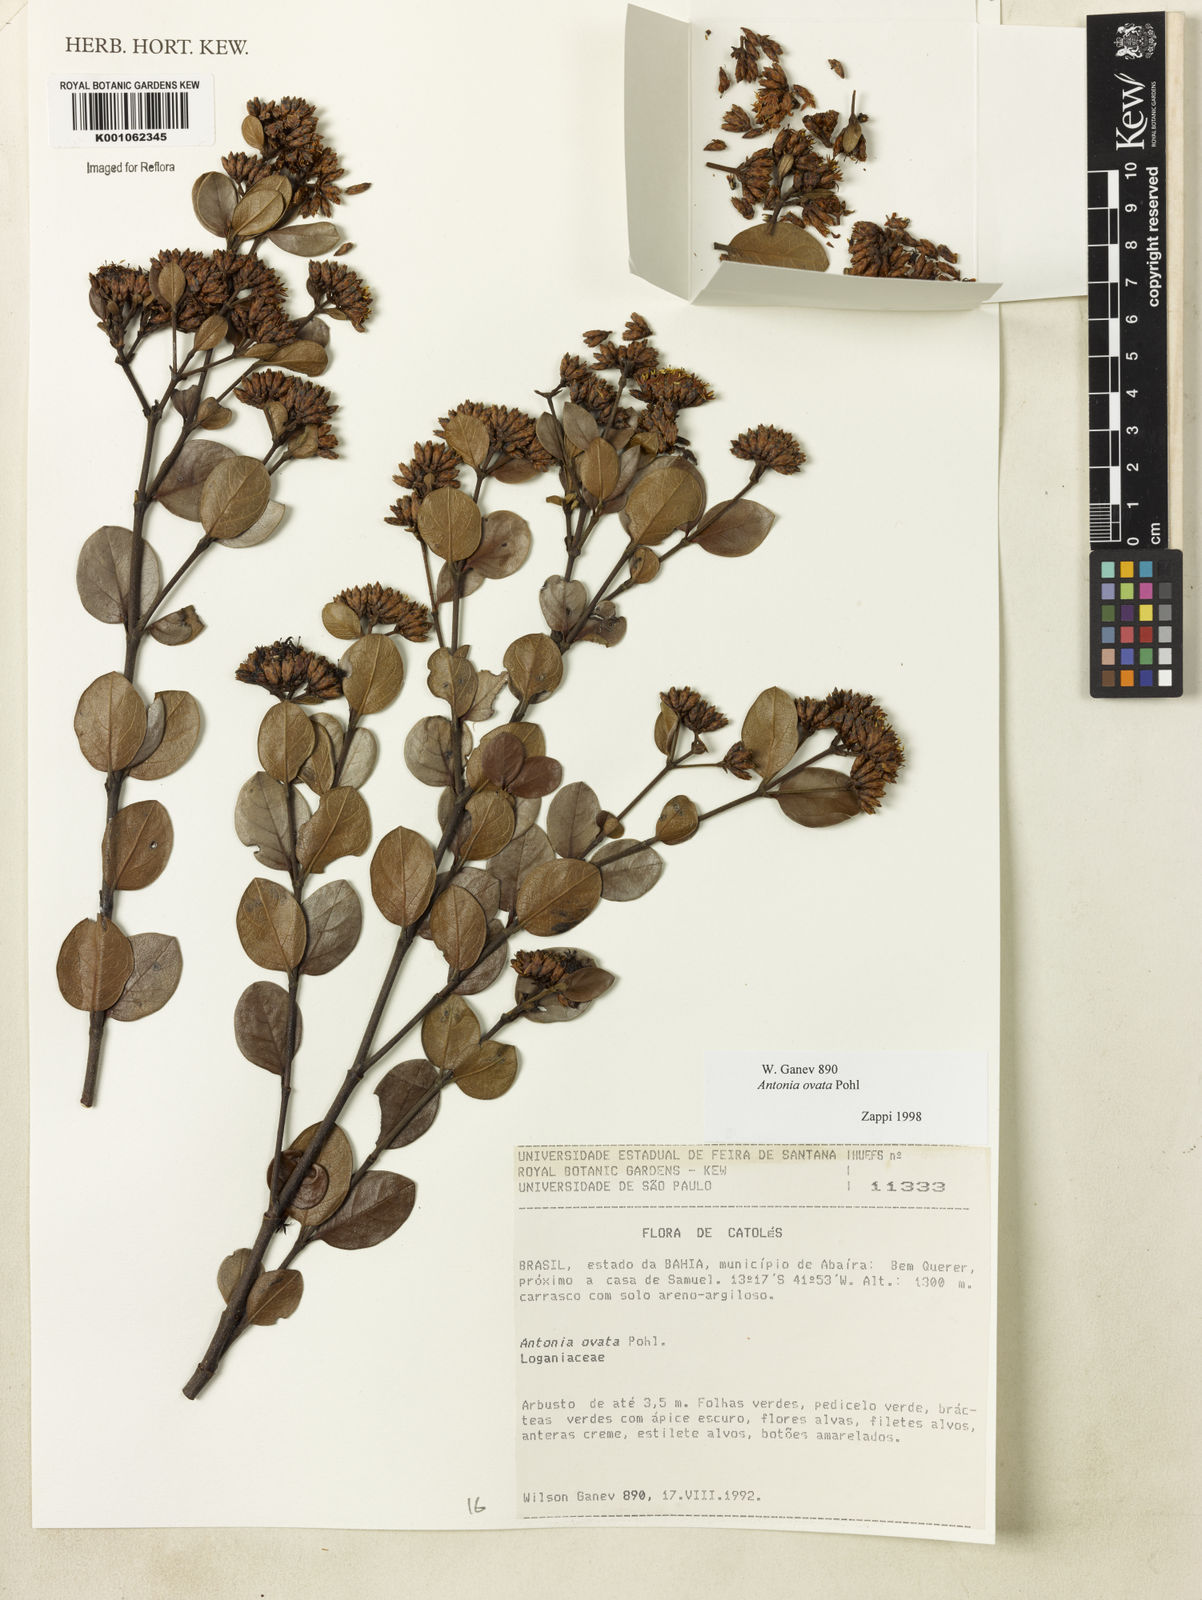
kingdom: Plantae
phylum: Tracheophyta
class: Magnoliopsida
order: Gentianales
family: Loganiaceae
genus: Antonia
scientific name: Antonia ovata
